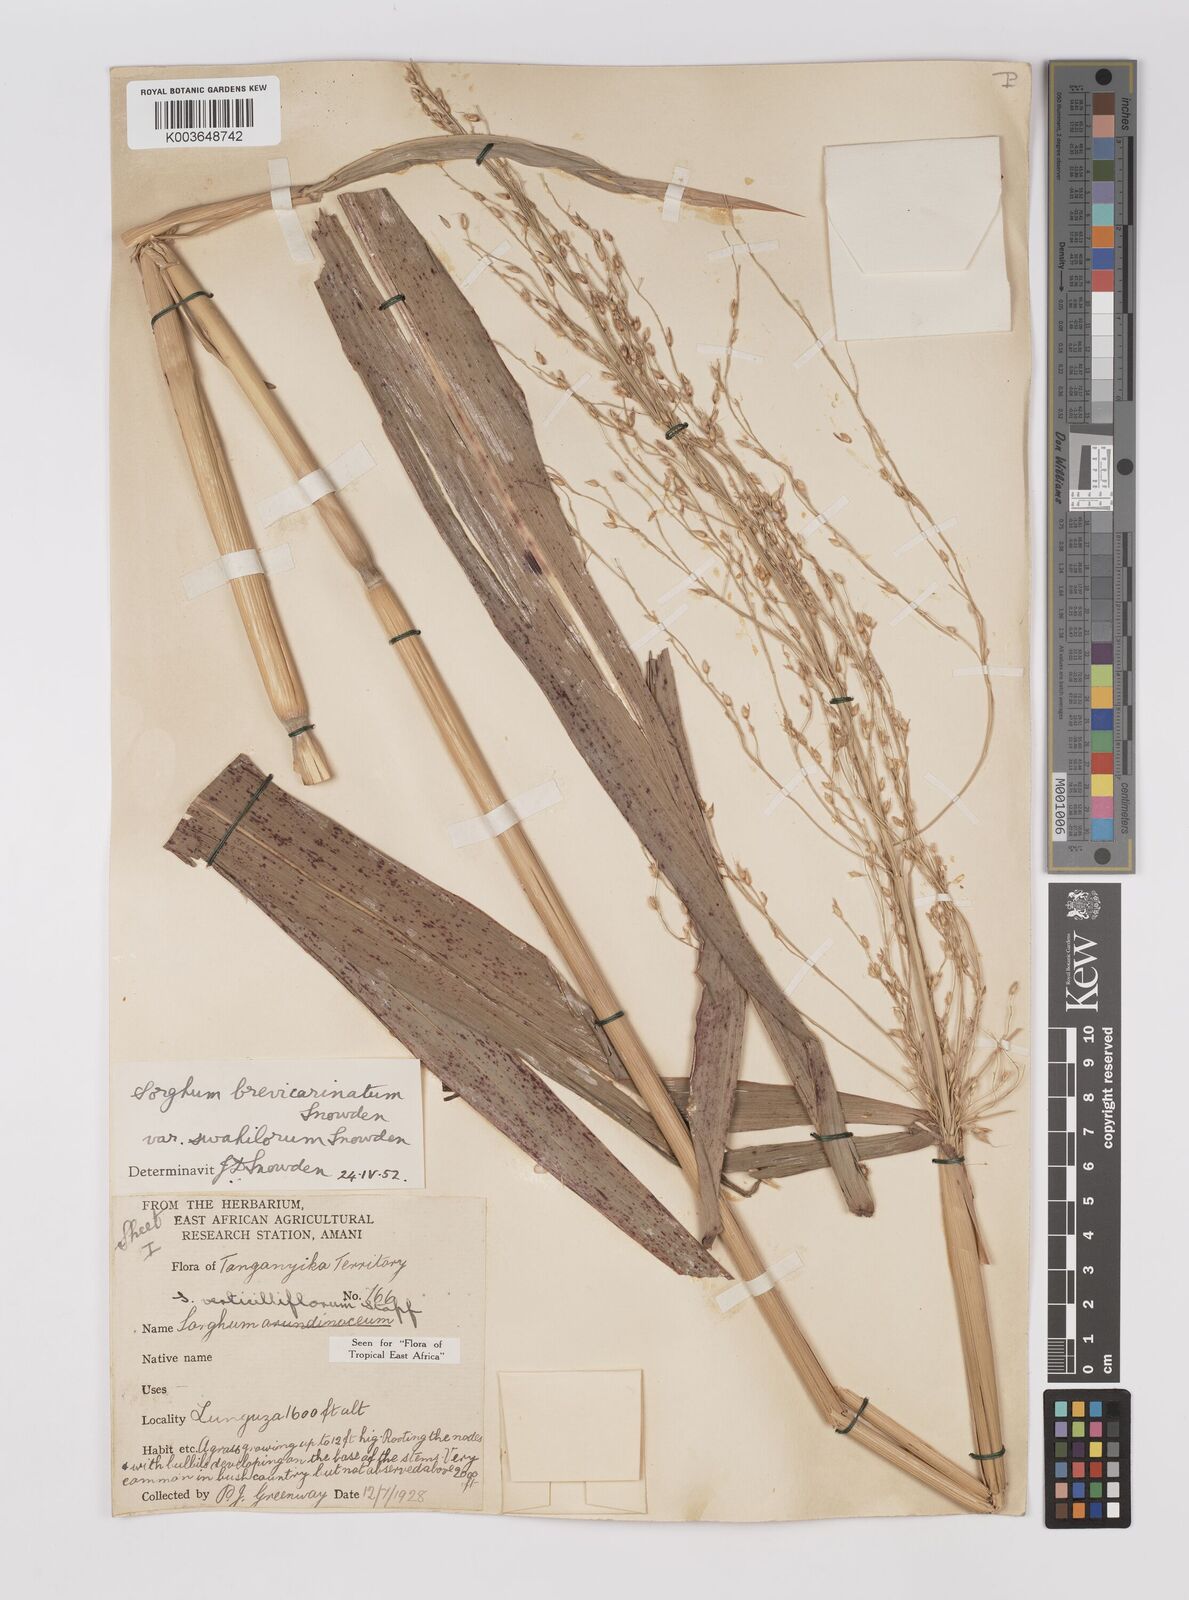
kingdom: Plantae
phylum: Tracheophyta
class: Liliopsida
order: Poales
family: Poaceae
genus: Sorghum
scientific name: Sorghum arundinaceum
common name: Sorghum
